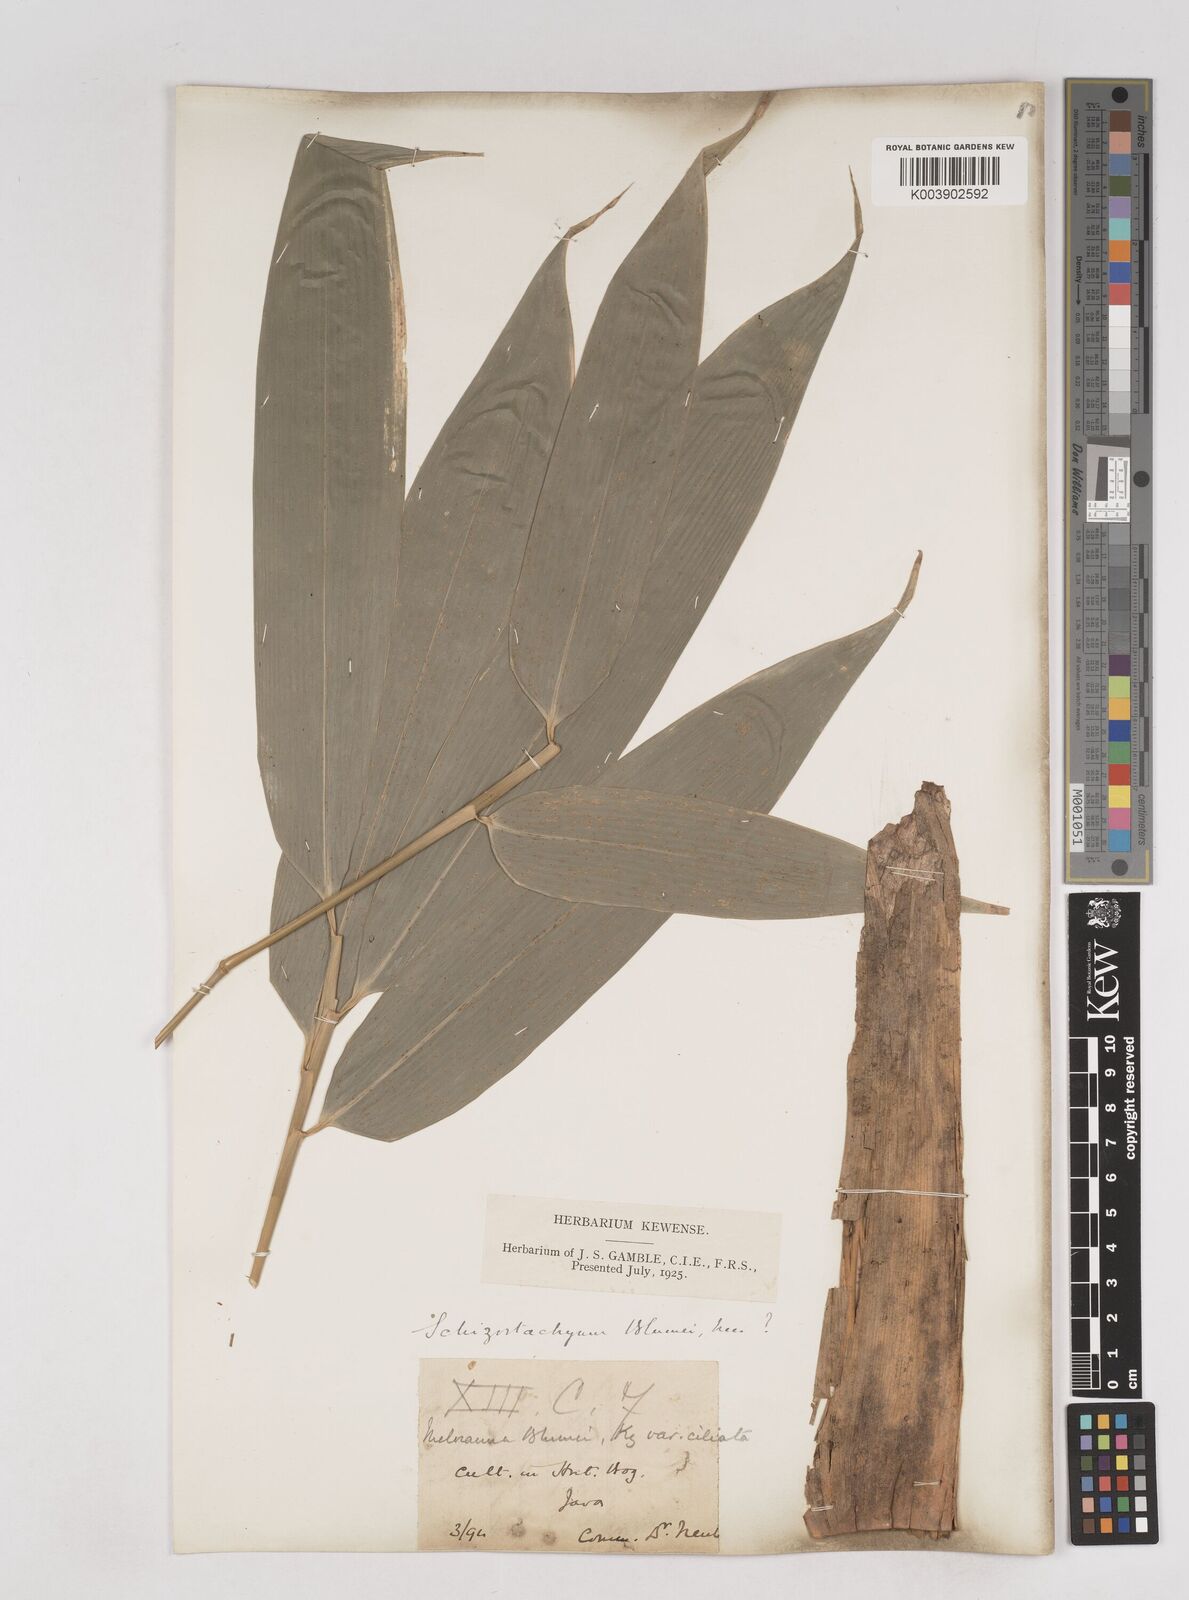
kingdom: Plantae
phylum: Tracheophyta
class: Liliopsida
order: Poales
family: Poaceae
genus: Schizostachyum
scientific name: Schizostachyum
